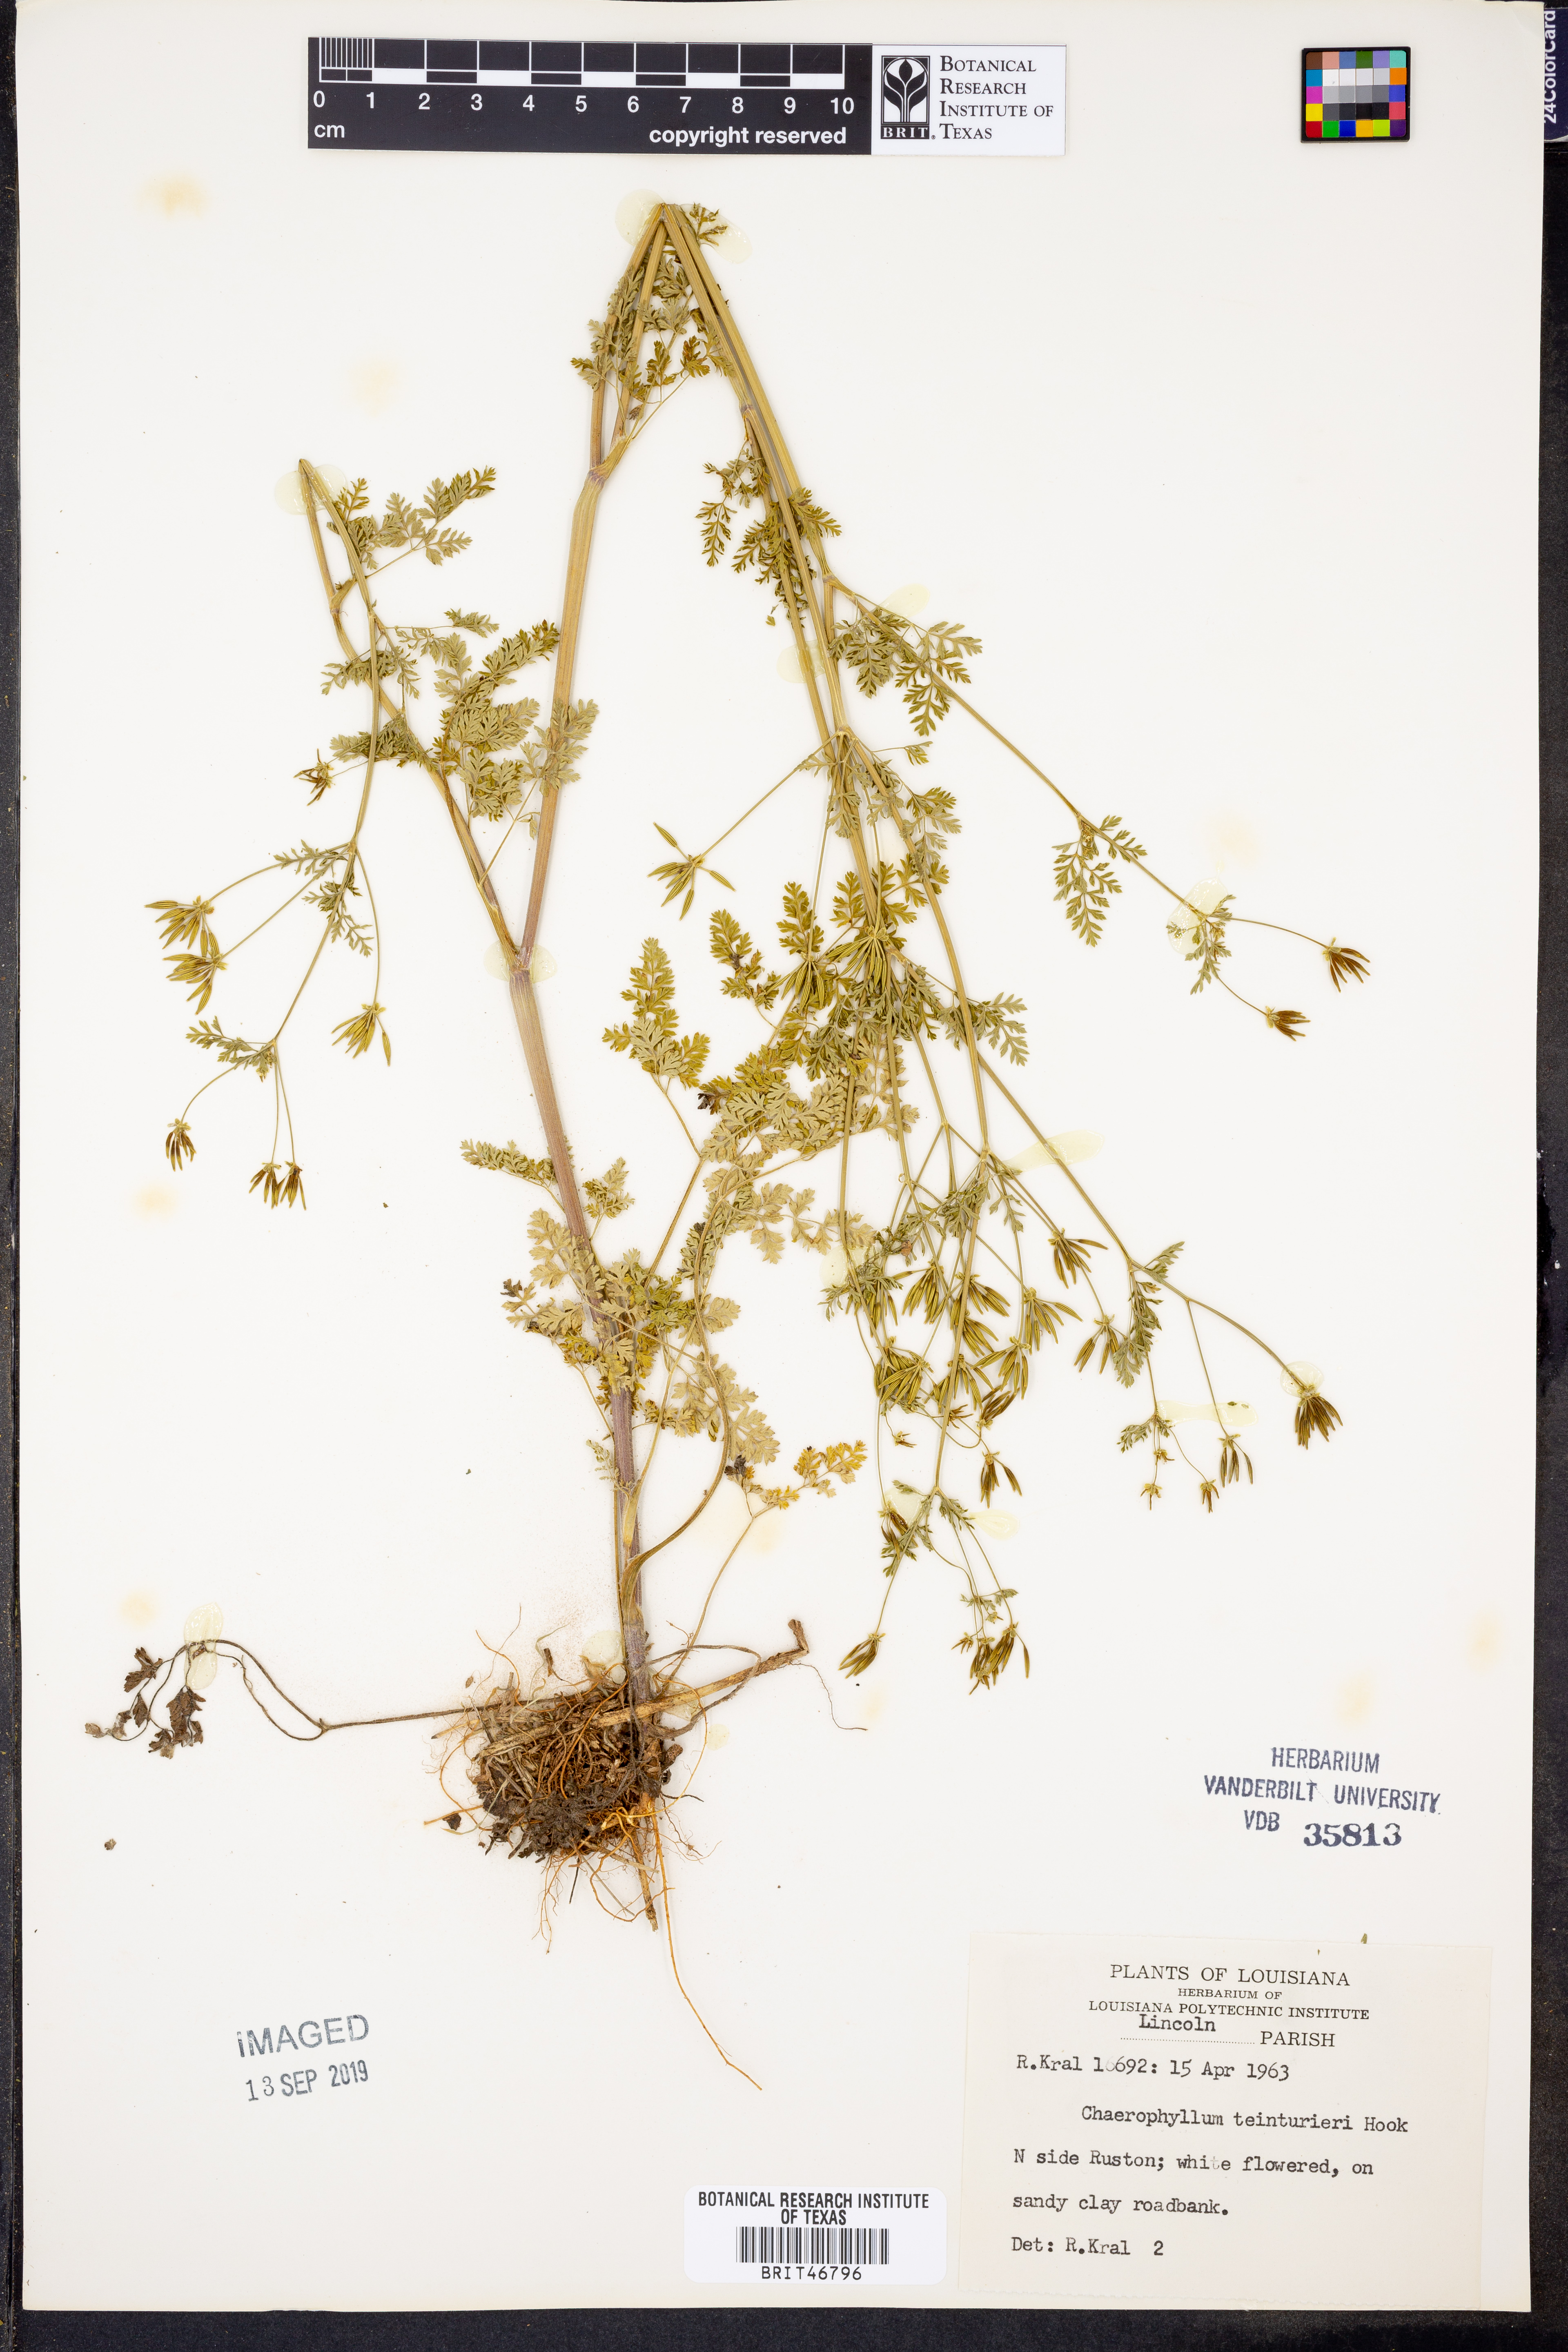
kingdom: Plantae
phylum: Tracheophyta
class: Magnoliopsida
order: Apiales
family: Apiaceae
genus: Chaerophyllum
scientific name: Chaerophyllum tainturieri
